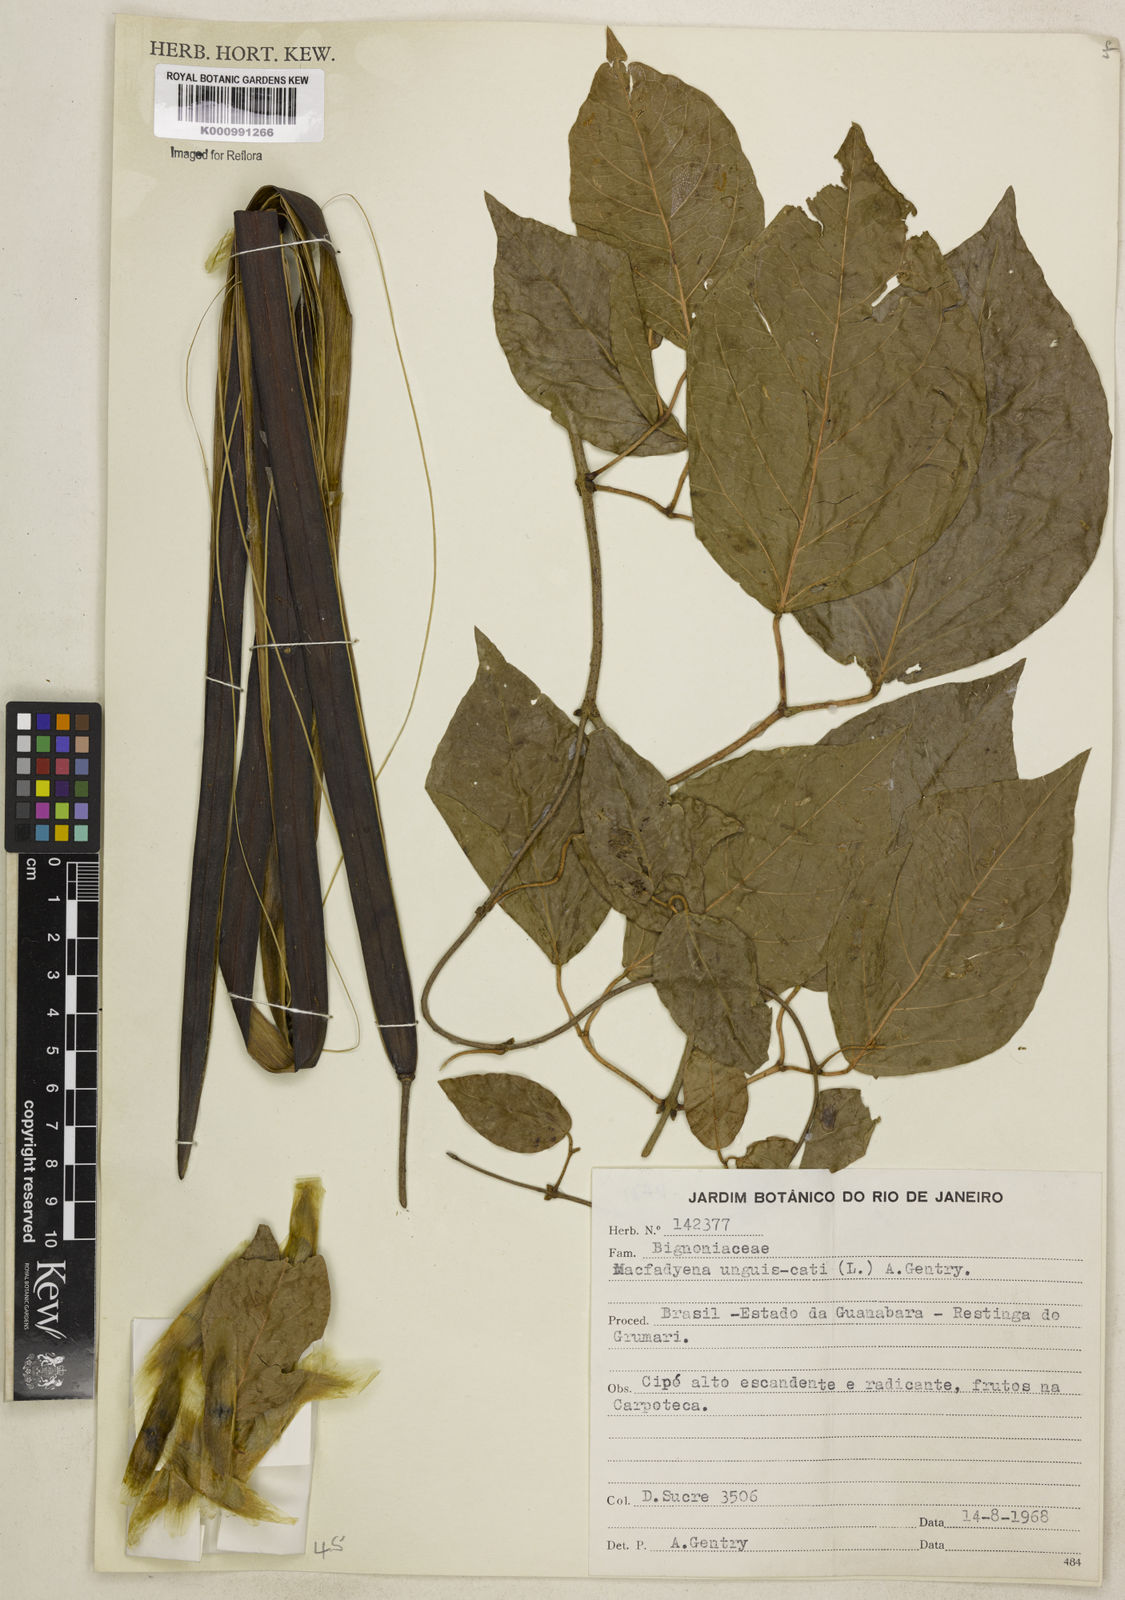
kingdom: Plantae
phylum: Tracheophyta
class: Magnoliopsida
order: Lamiales
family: Bignoniaceae
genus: Dolichandra
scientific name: Dolichandra unguis-cati
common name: Catclaw vine
